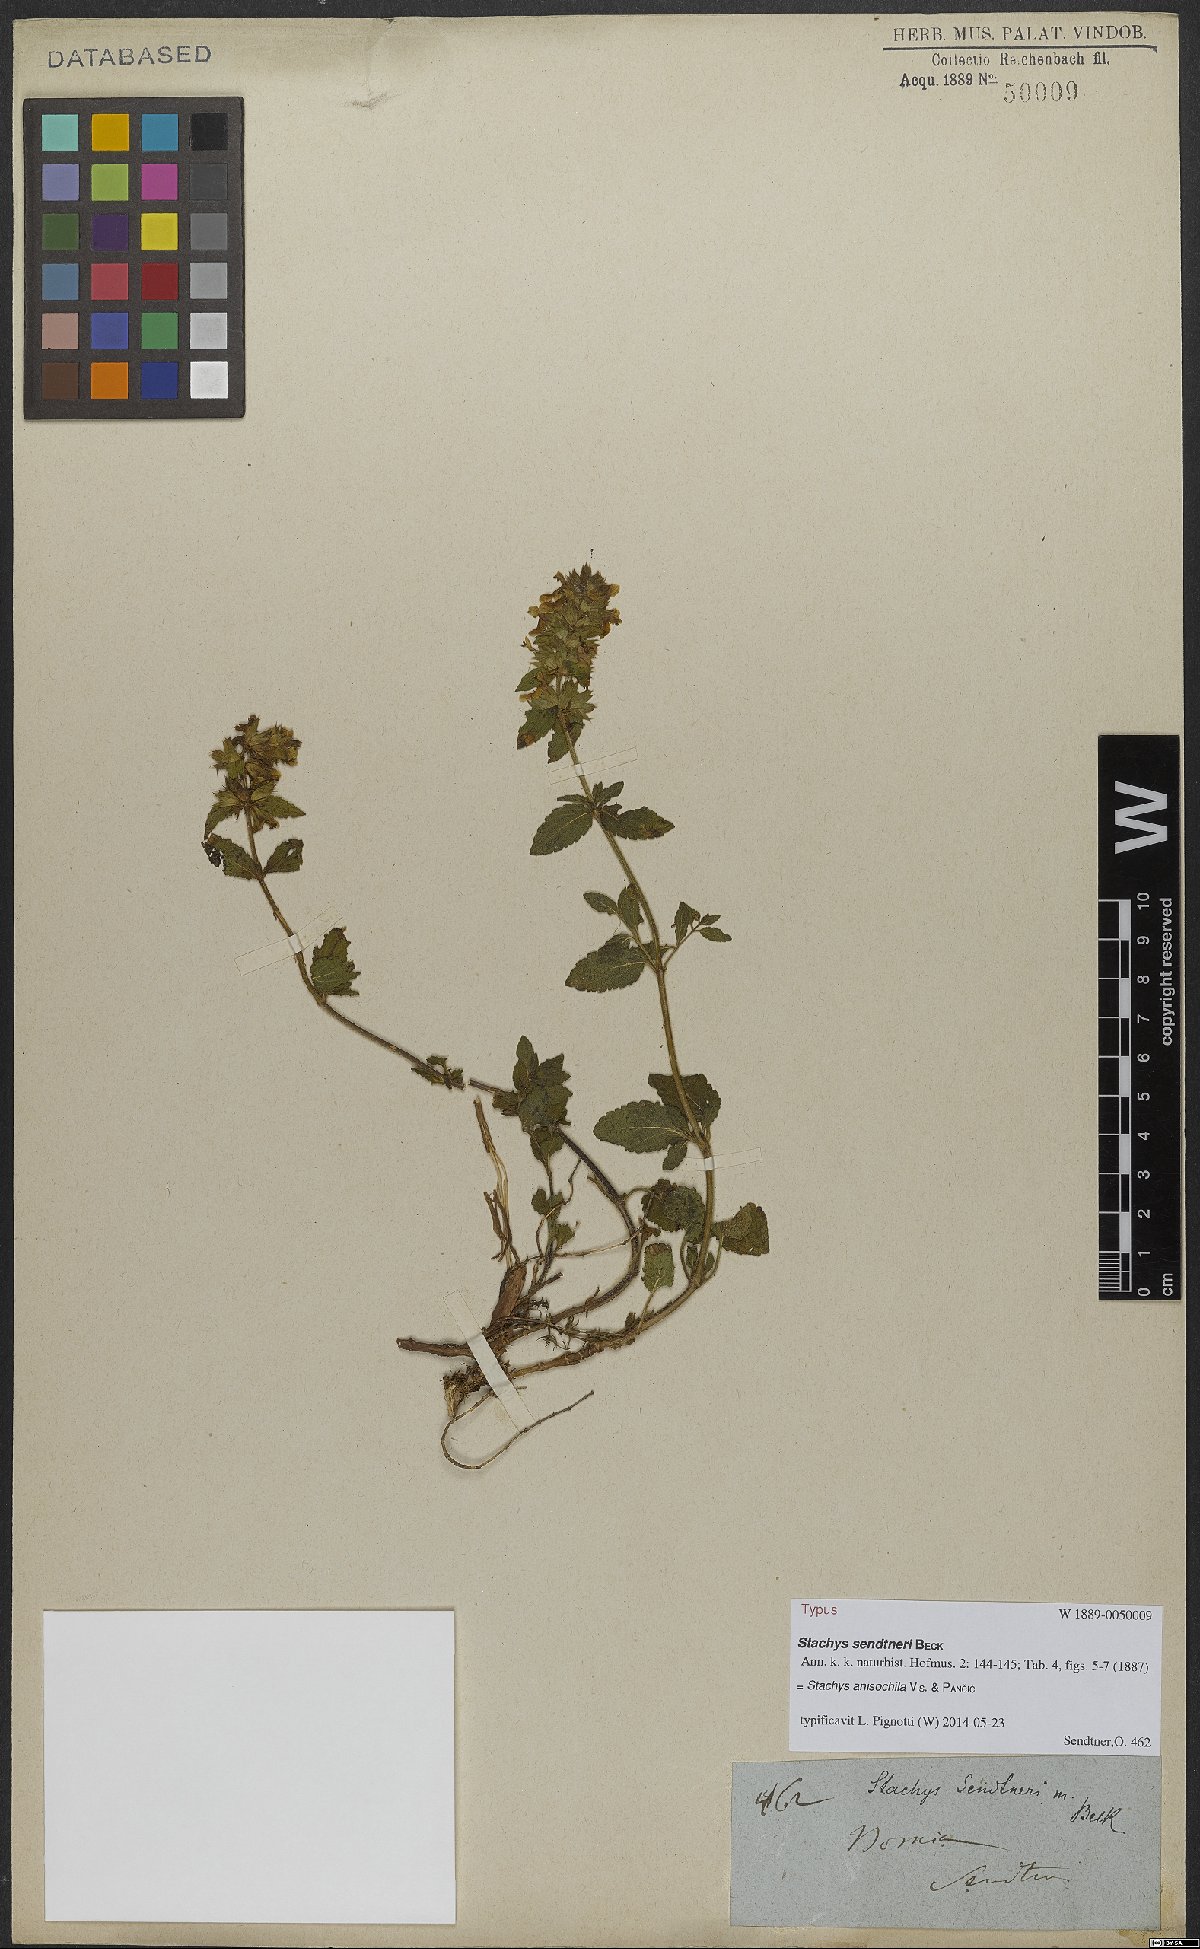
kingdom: Plantae
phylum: Tracheophyta
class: Magnoliopsida
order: Lamiales
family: Lamiaceae
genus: Stachys
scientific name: Stachys anisochila
